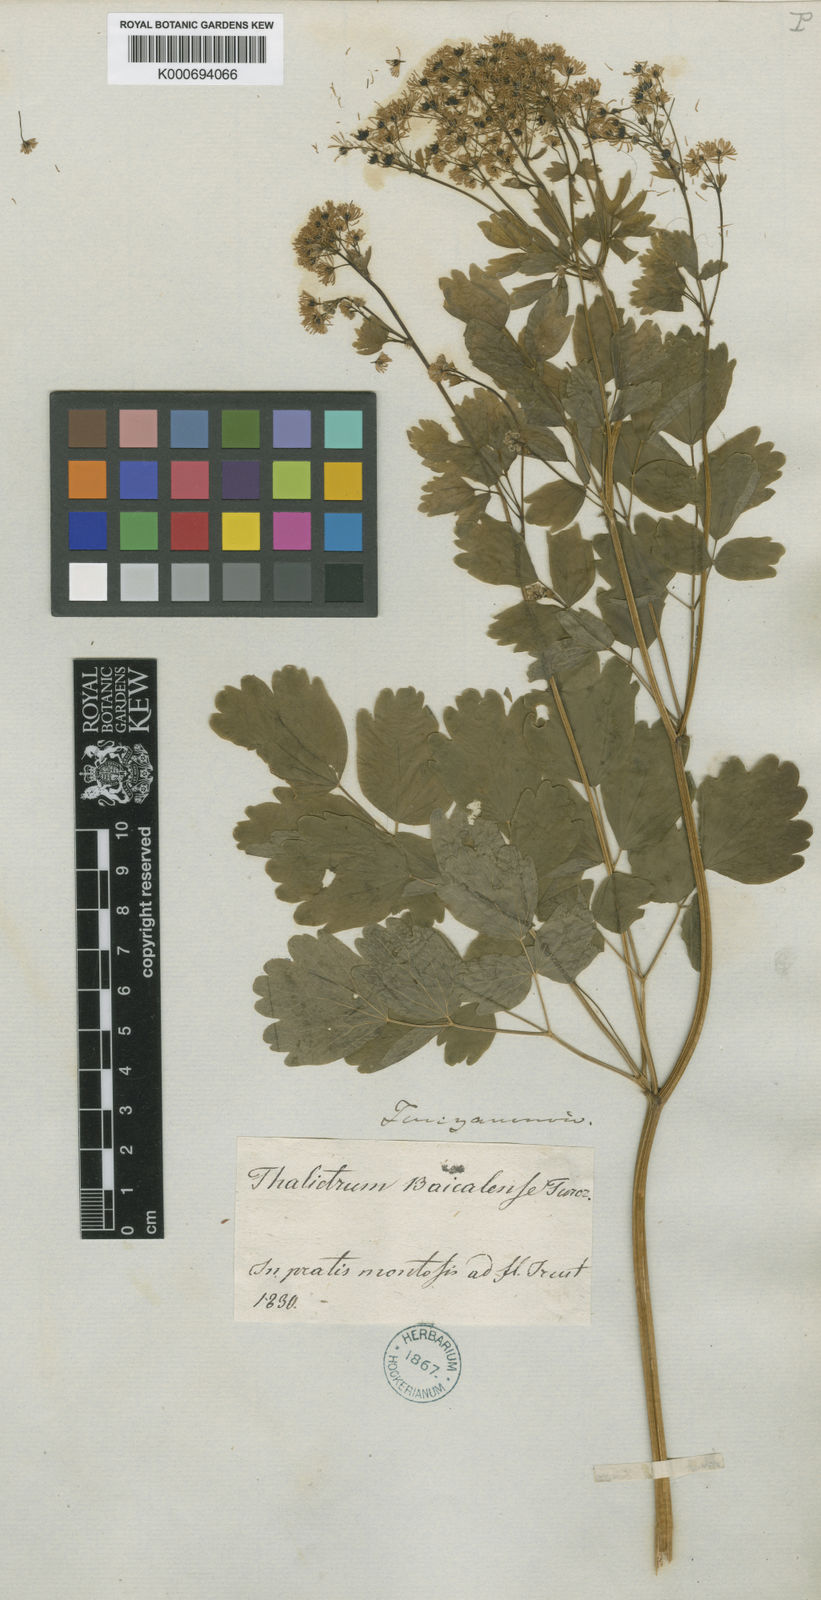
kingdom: Plantae
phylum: Tracheophyta
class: Magnoliopsida
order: Ranunculales
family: Ranunculaceae
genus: Thalictrum
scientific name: Thalictrum
